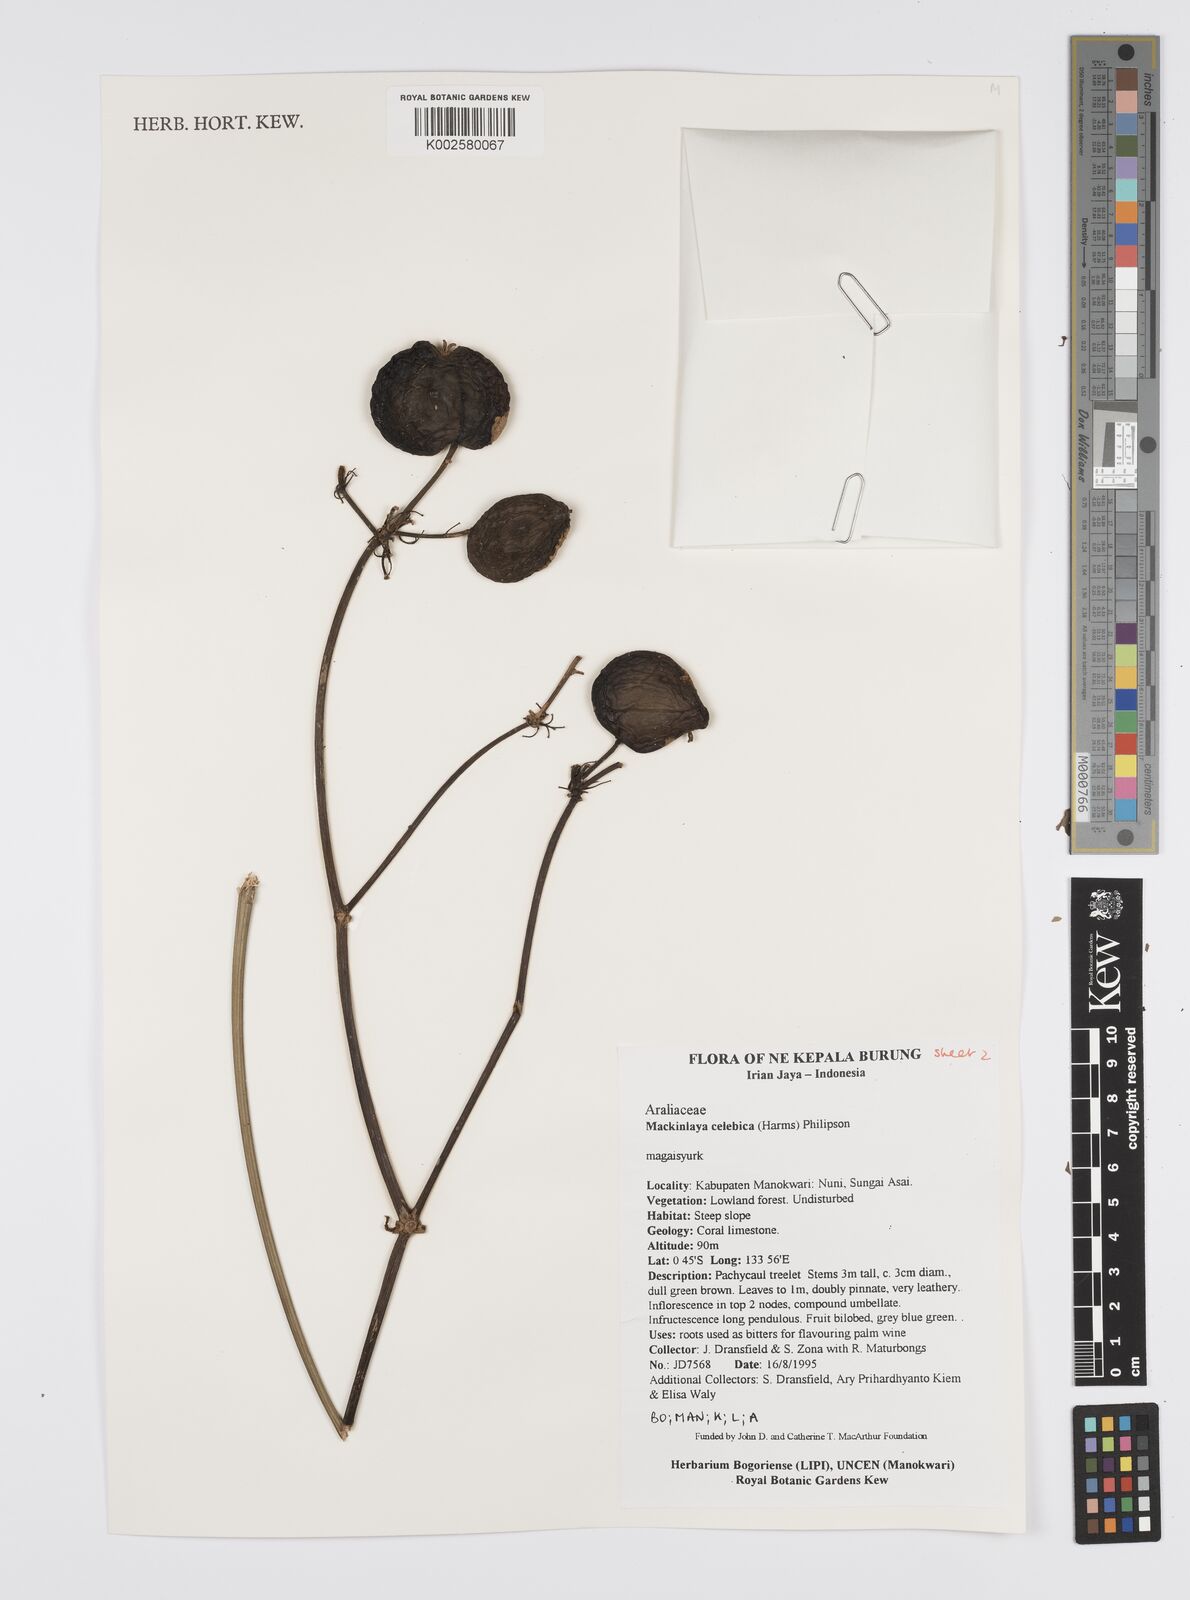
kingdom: Plantae
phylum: Tracheophyta
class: Magnoliopsida
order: Apiales
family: Apiaceae
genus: Mackinlaya
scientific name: Mackinlaya
